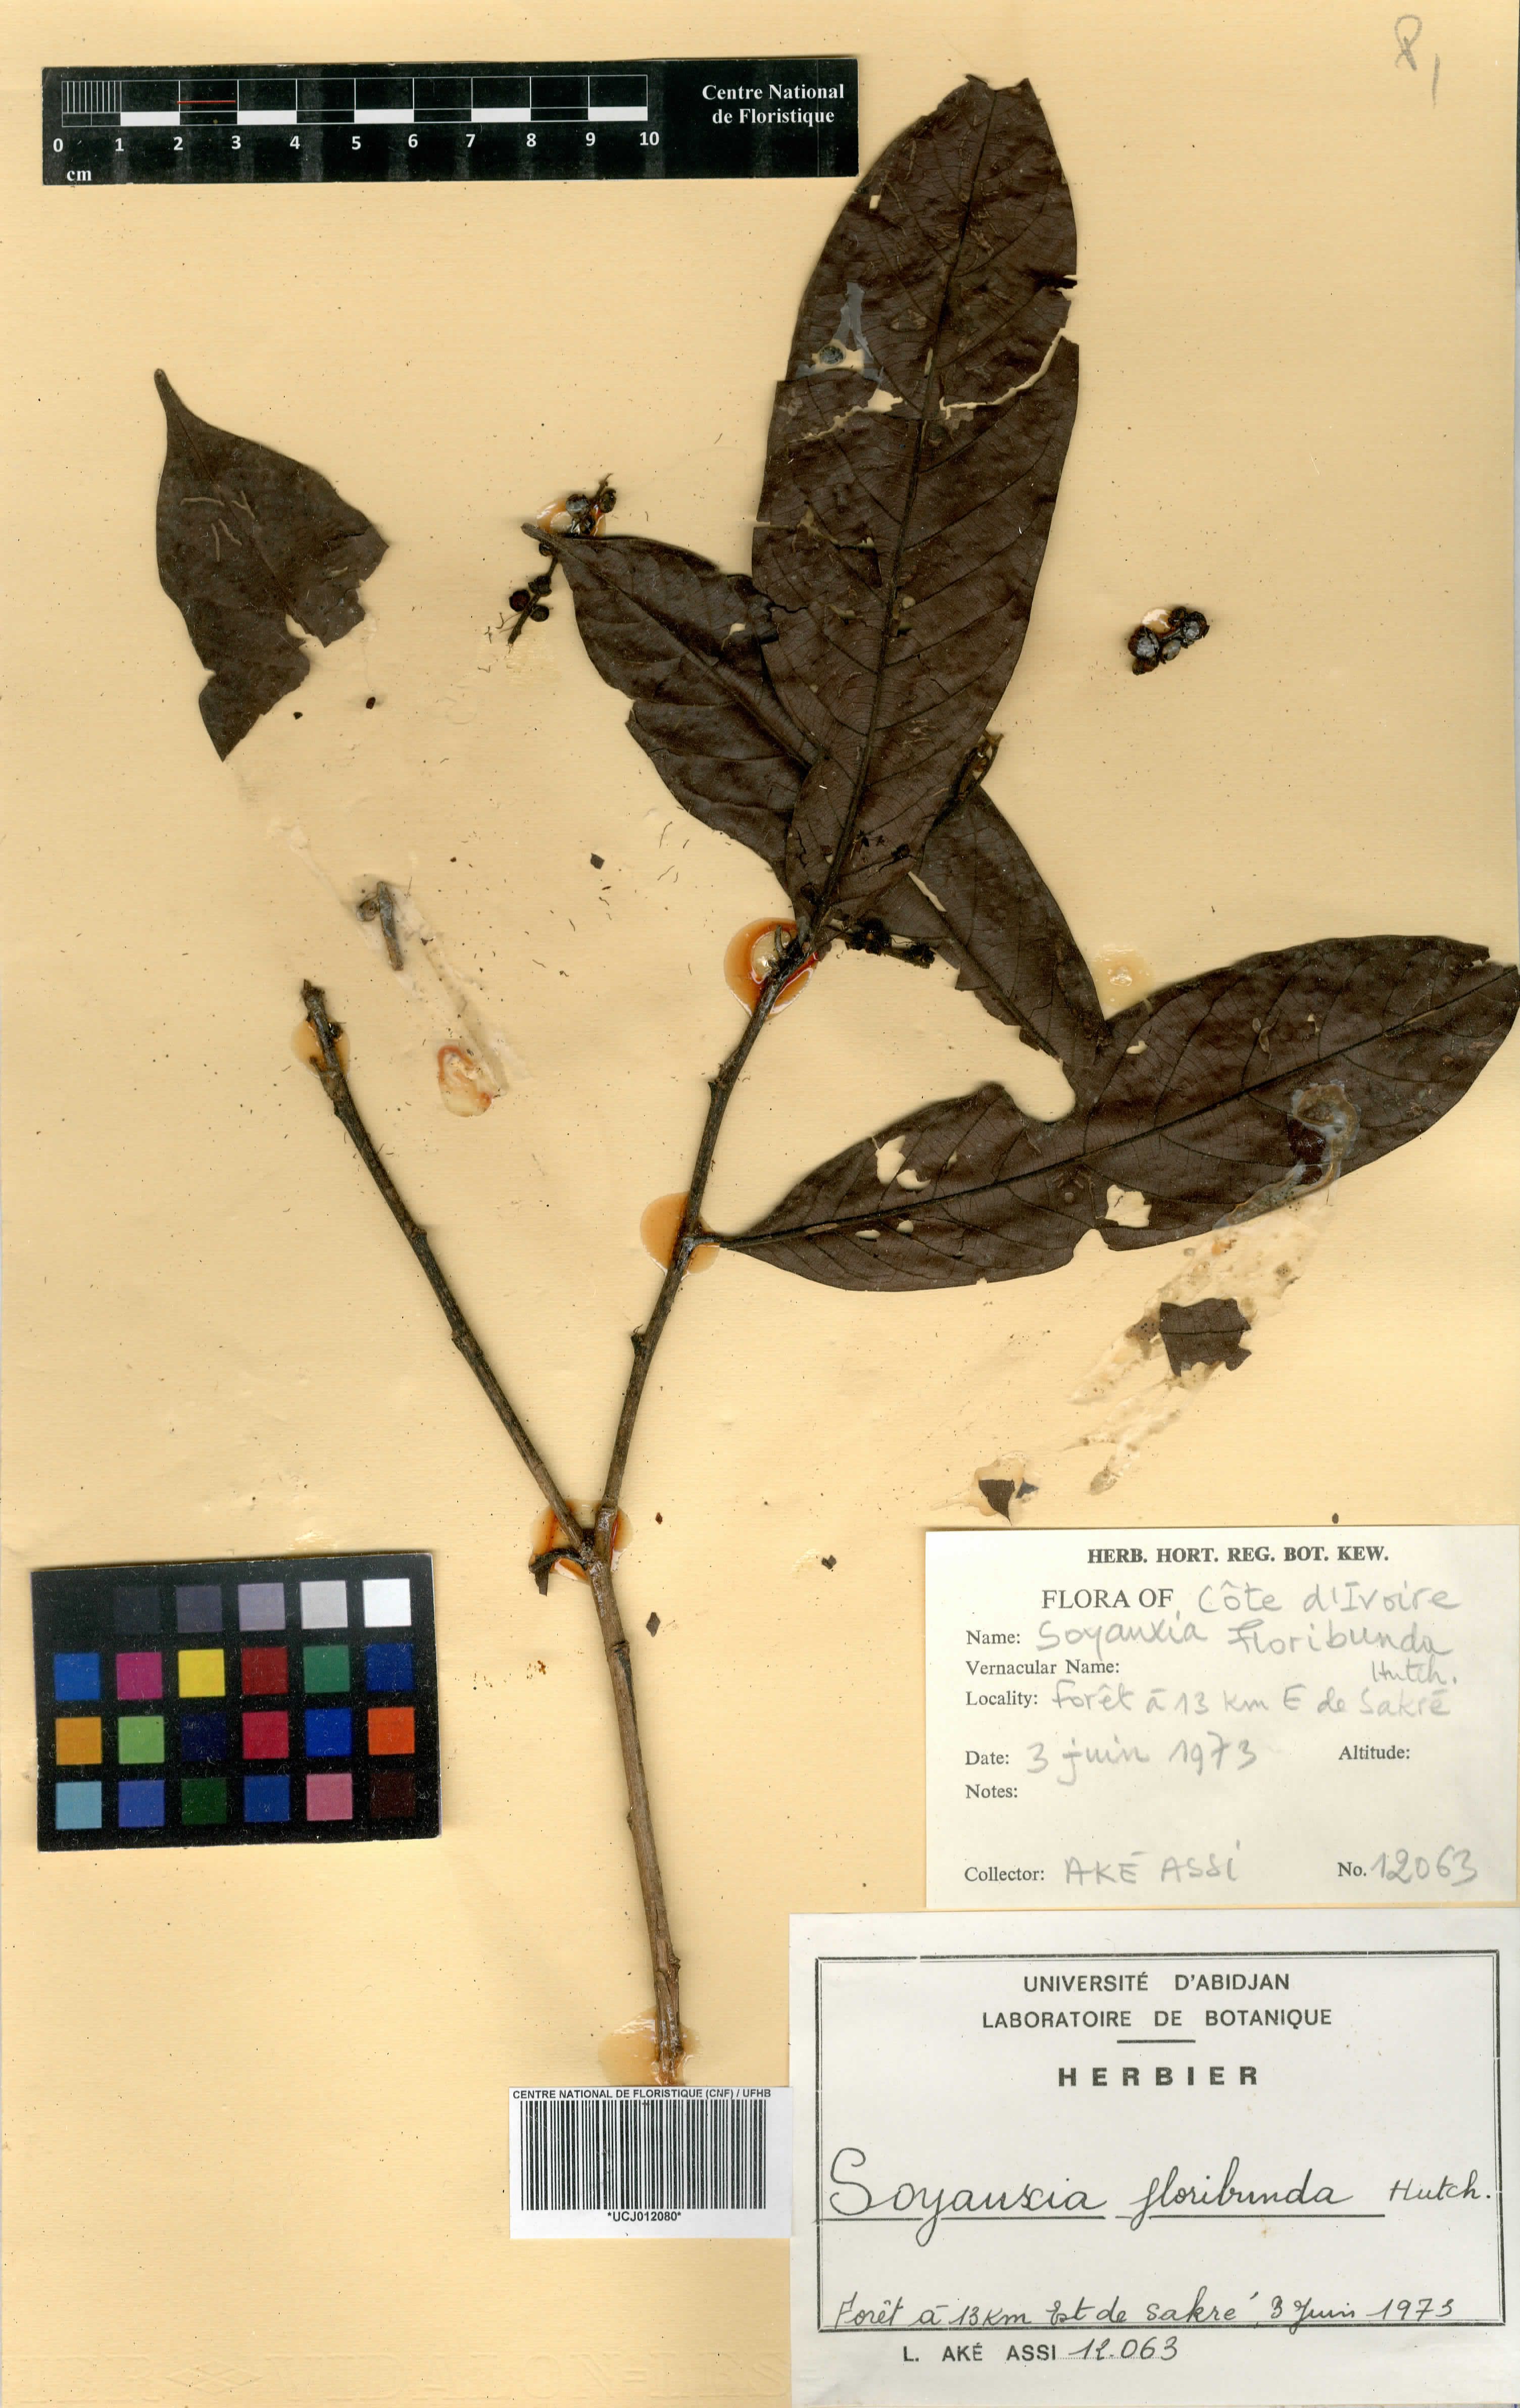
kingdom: Plantae
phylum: Tracheophyta
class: Magnoliopsida
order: Saxifragales
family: Peridiscaceae
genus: Soyauxia
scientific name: Soyauxia floribunda
